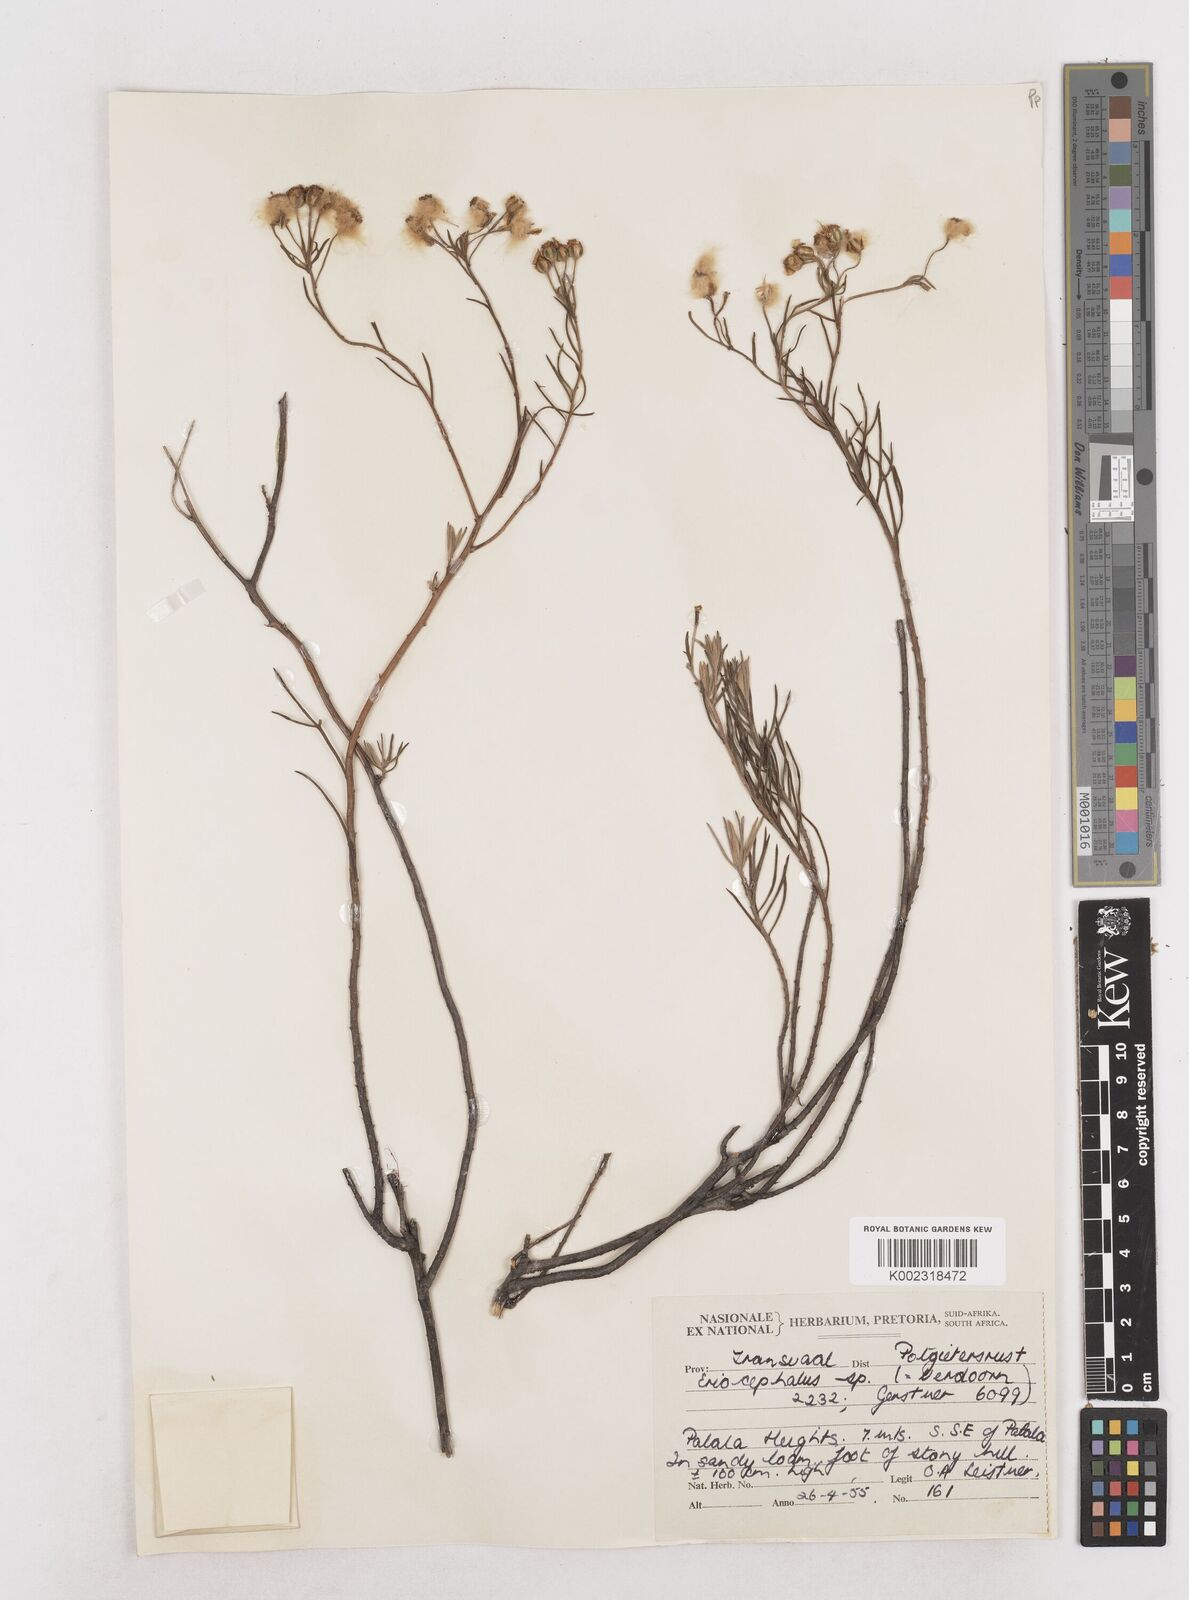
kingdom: Plantae
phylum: Tracheophyta
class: Magnoliopsida
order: Asterales
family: Asteraceae
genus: Eriocephalus
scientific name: Eriocephalus
